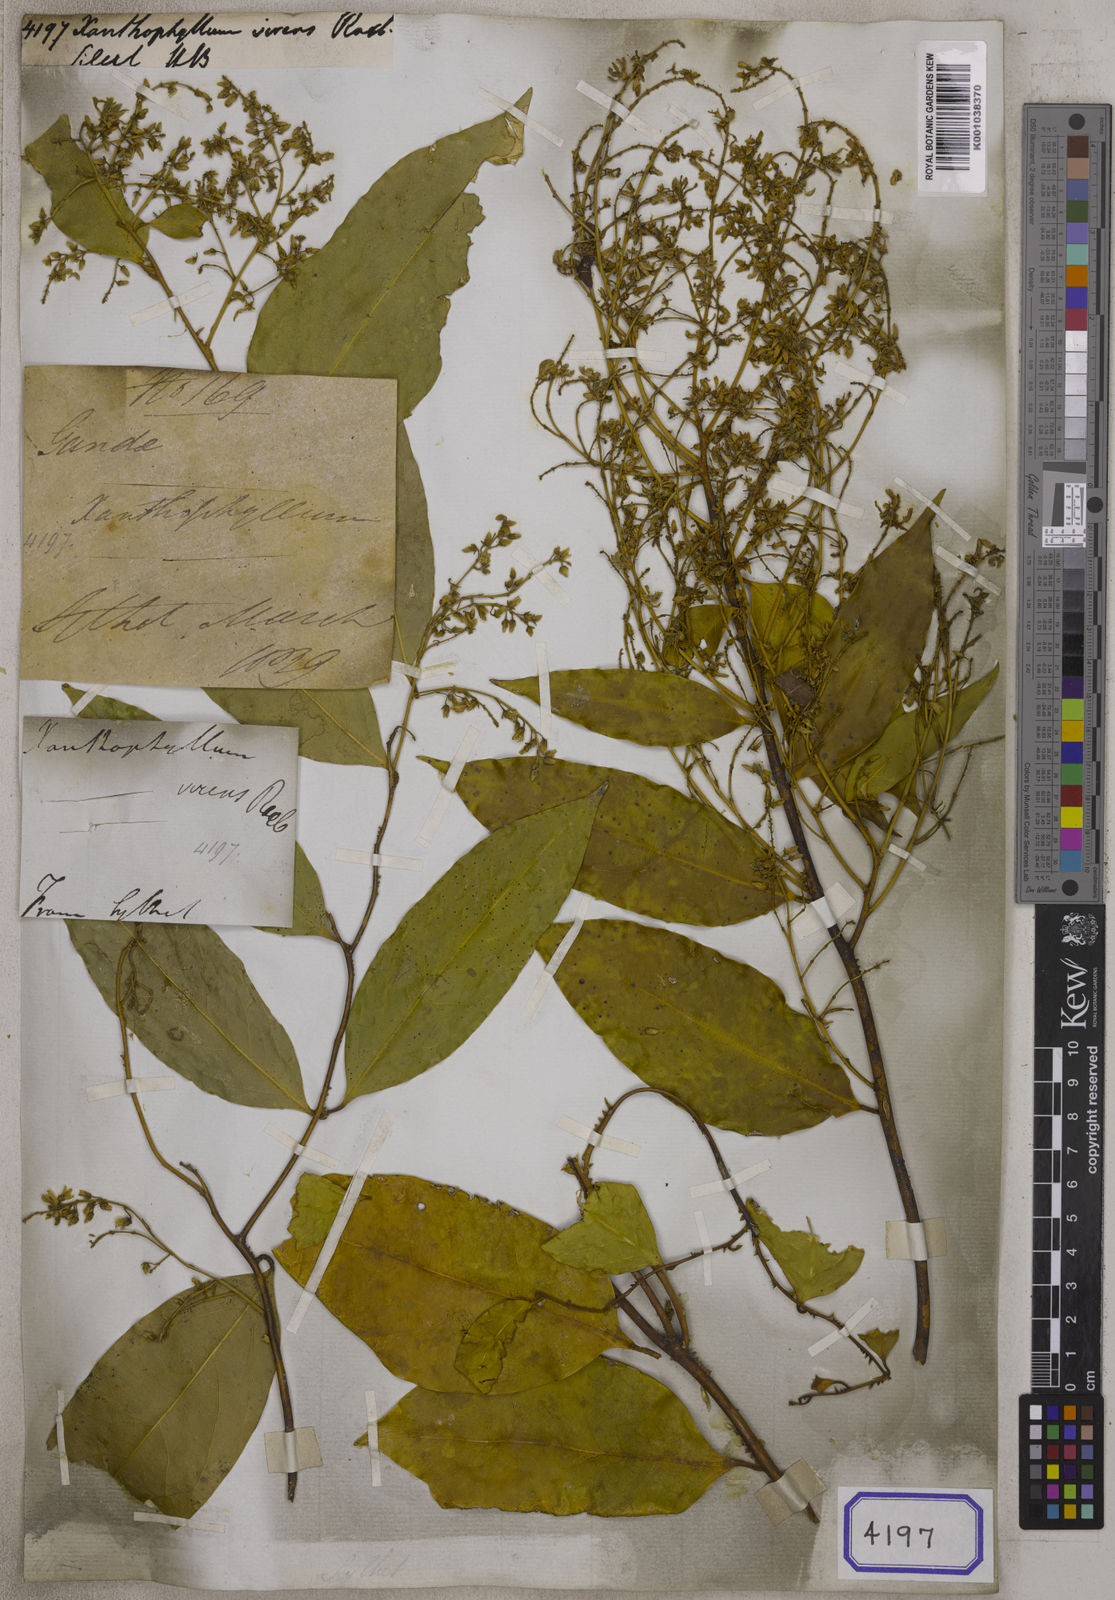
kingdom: Plantae
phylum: Tracheophyta
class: Magnoliopsida
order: Fabales
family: Polygalaceae
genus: Xanthophyllum
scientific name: Xanthophyllum virens
